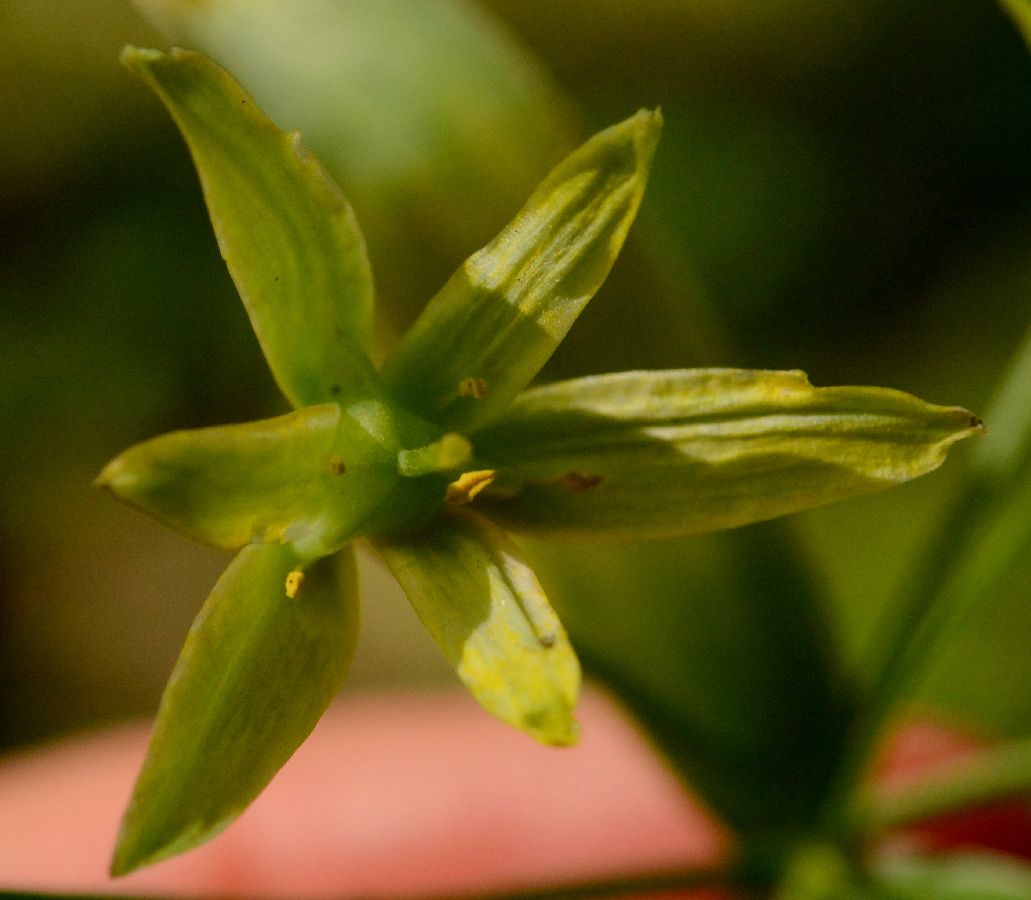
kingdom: Plantae
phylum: Tracheophyta
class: Liliopsida
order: Liliales
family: Liliaceae
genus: Gagea
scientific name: Gagea lutea
